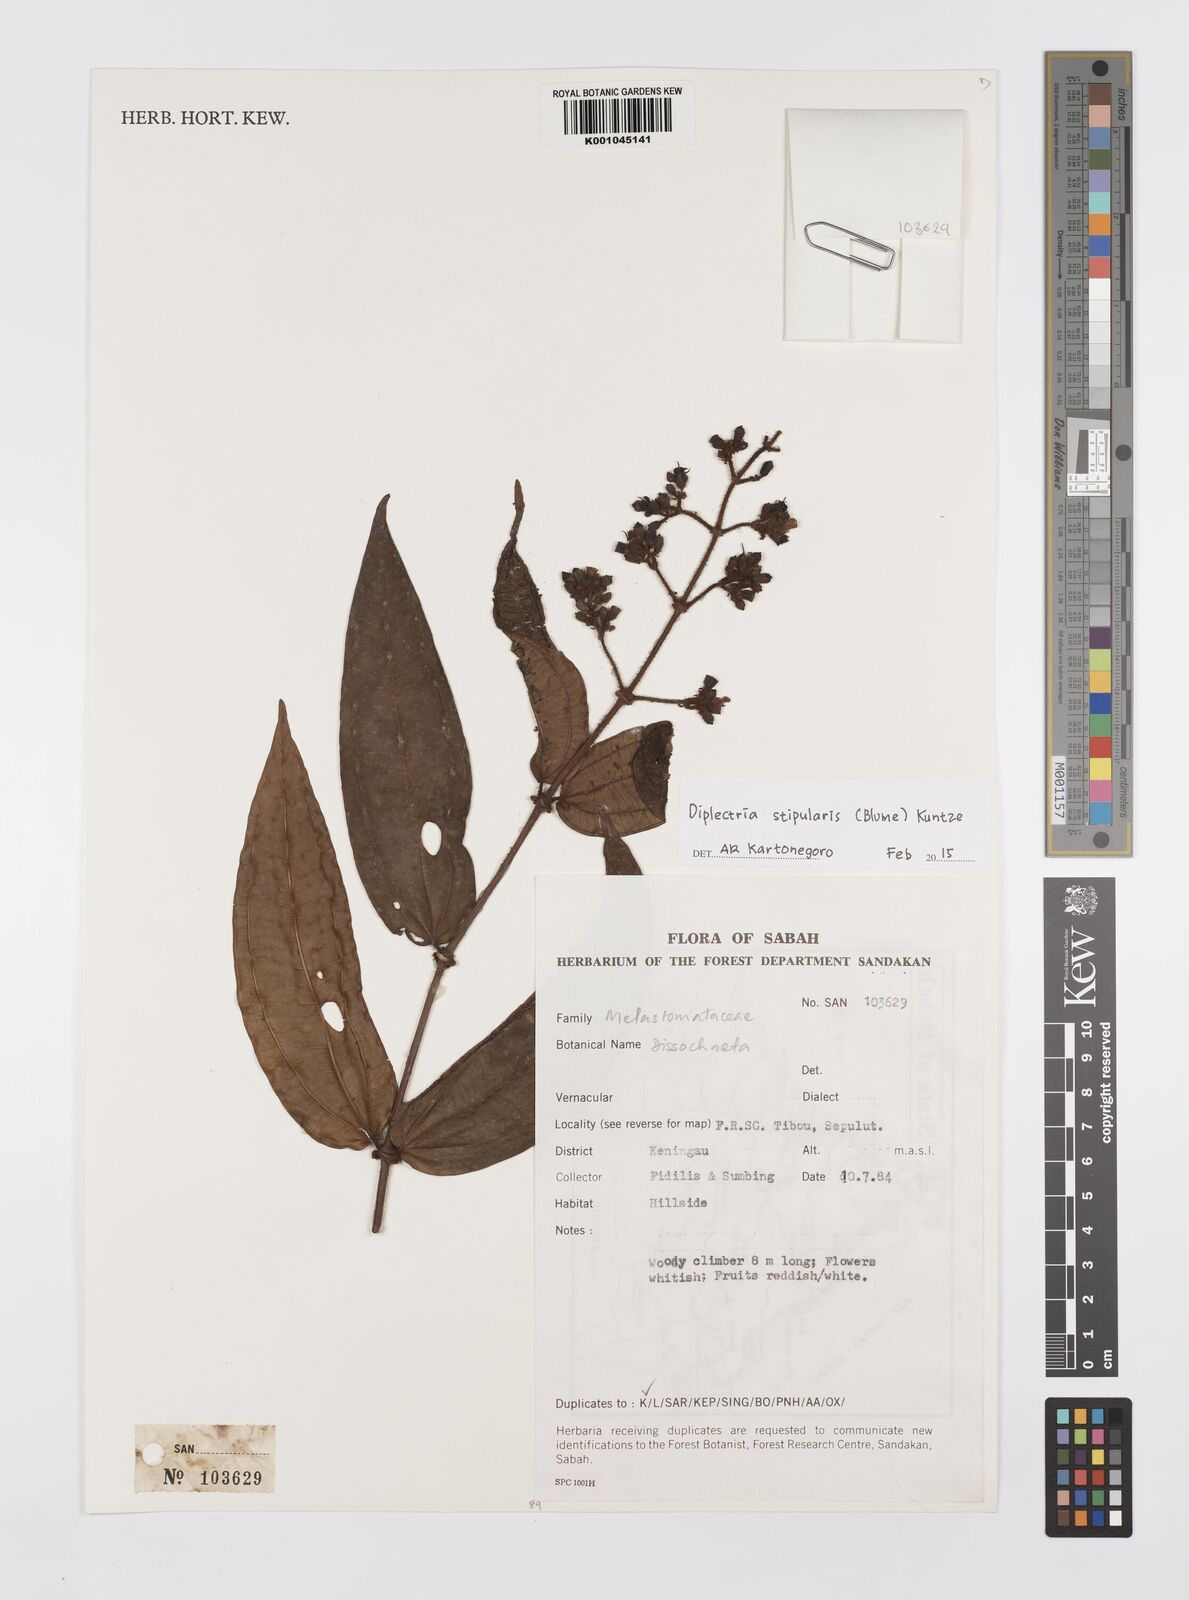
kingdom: Plantae
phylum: Tracheophyta
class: Magnoliopsida
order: Myrtales
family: Melastomataceae
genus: Diplectria
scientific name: Diplectria
